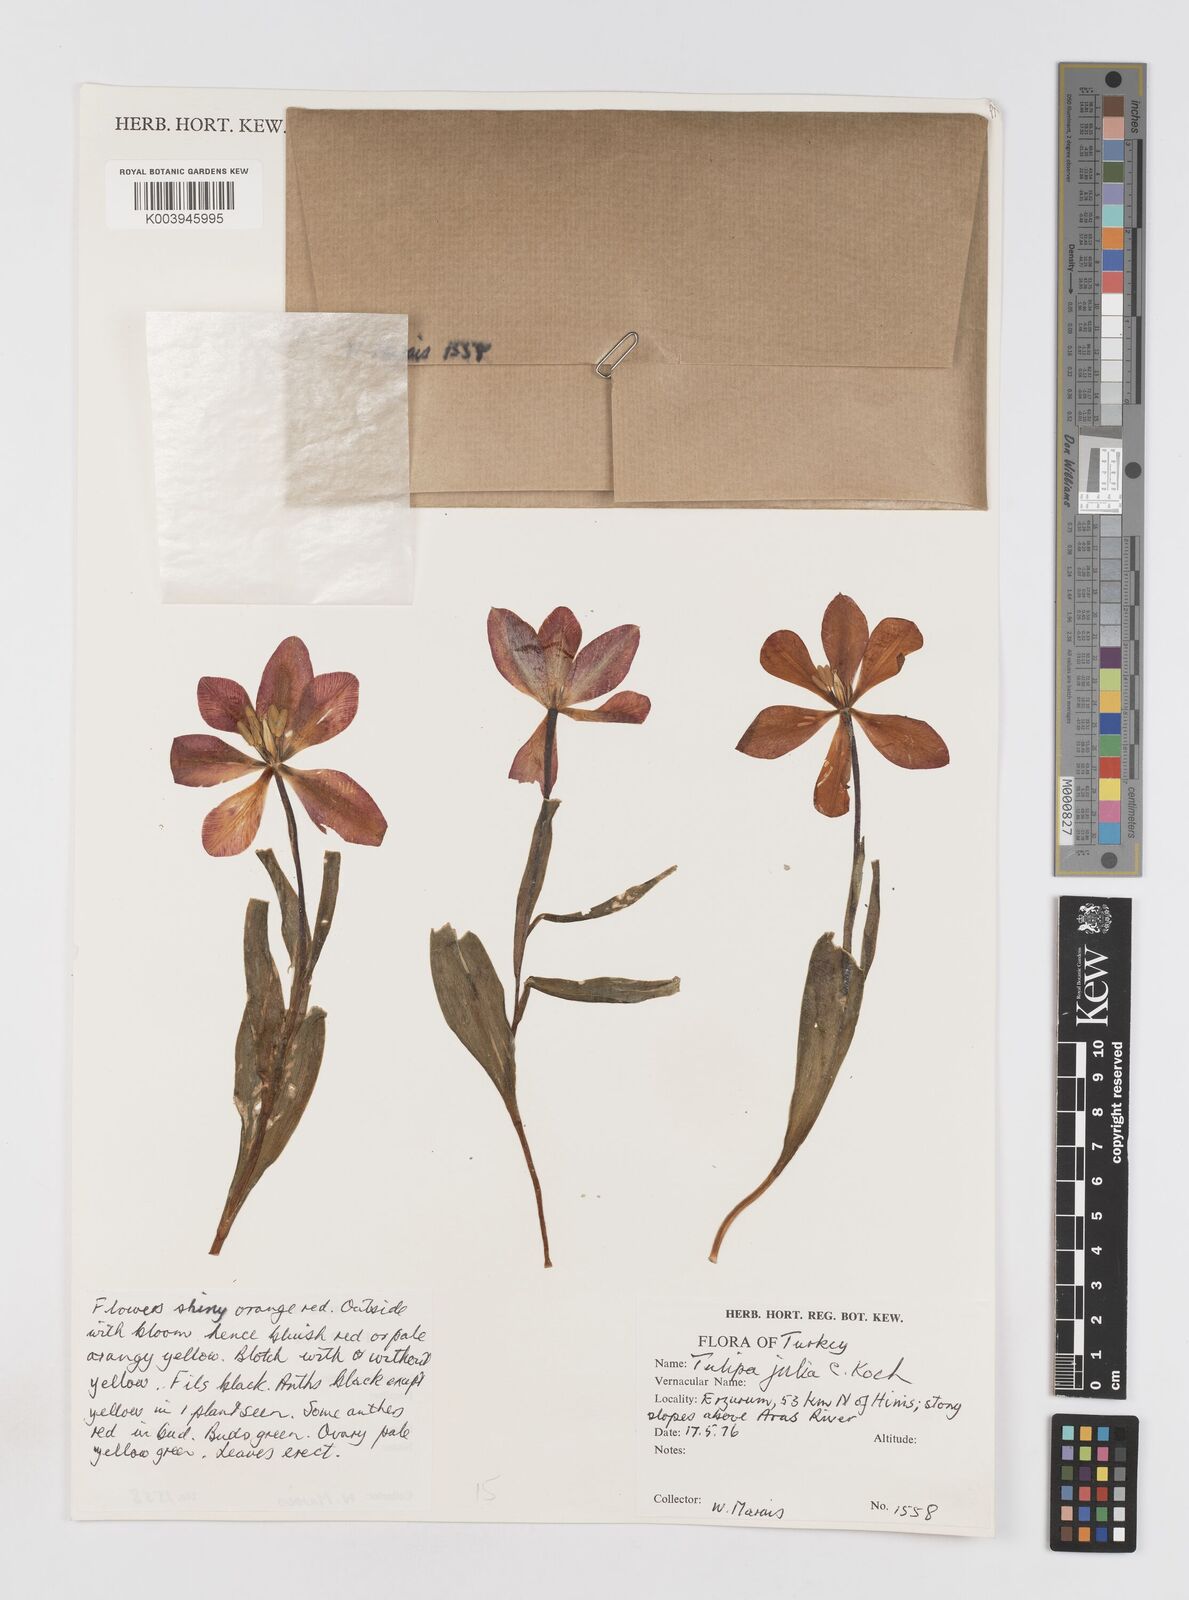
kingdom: Plantae
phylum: Tracheophyta
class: Liliopsida
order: Liliales
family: Liliaceae
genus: Tulipa
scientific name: Tulipa julia
